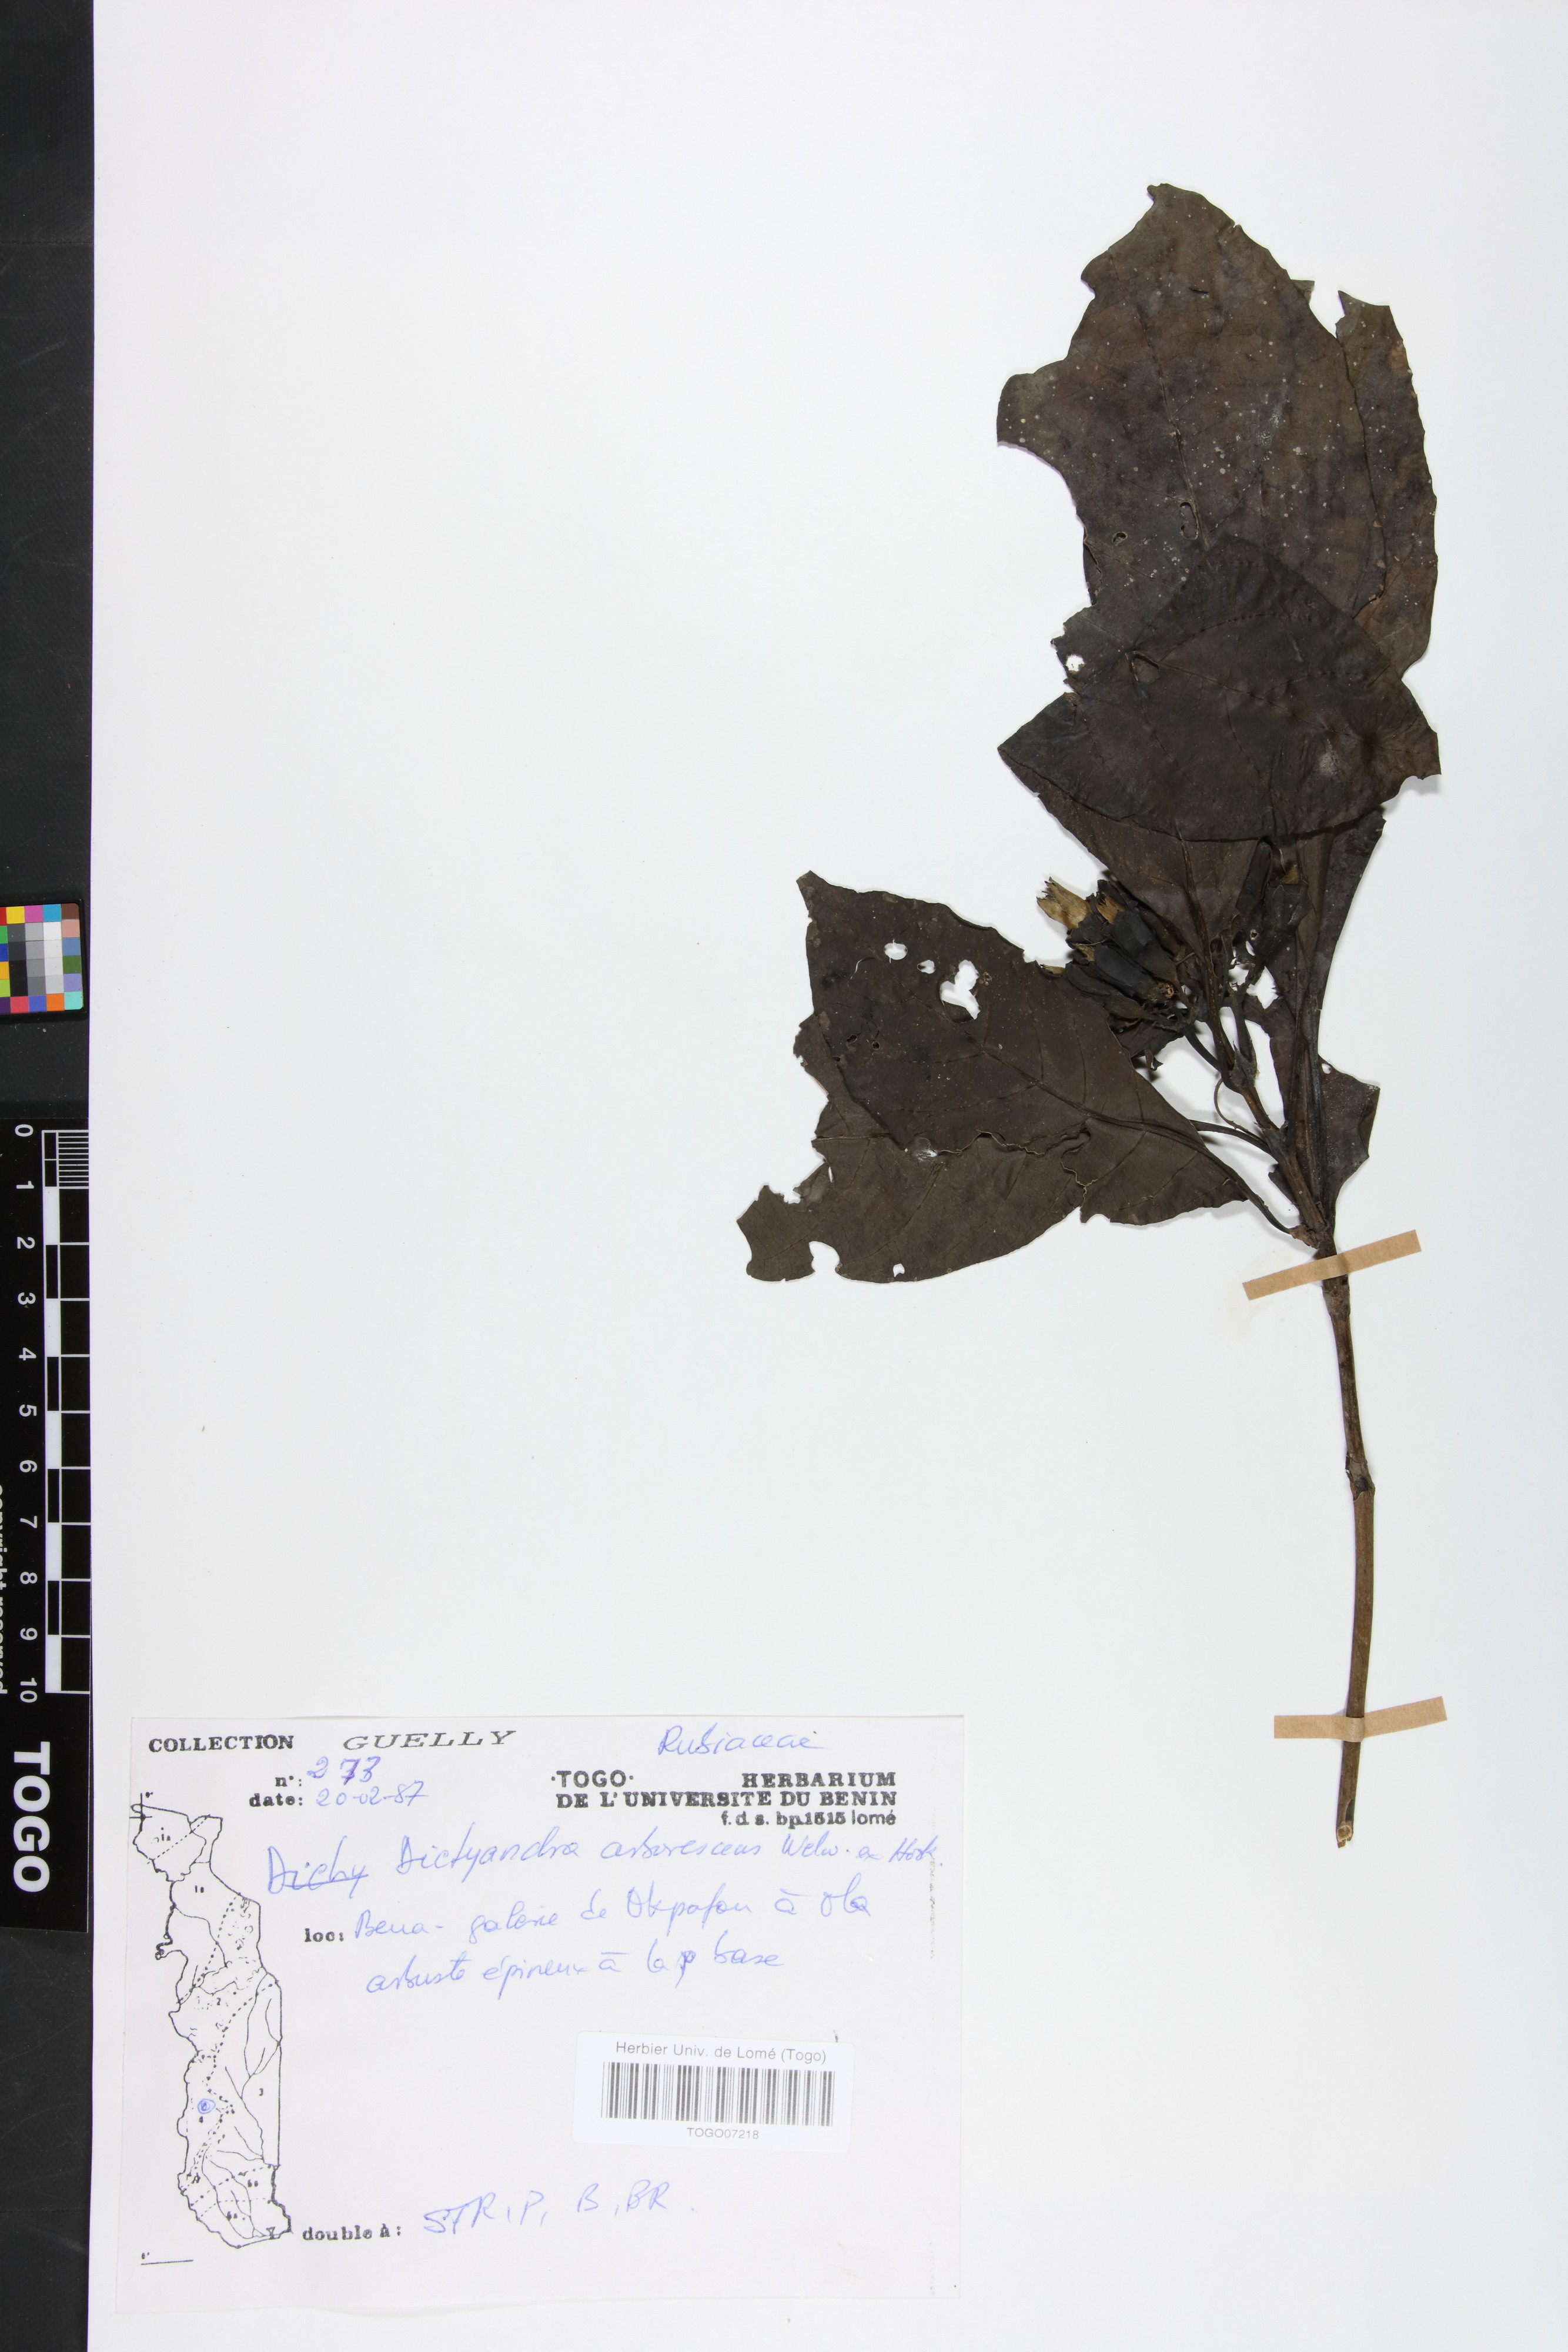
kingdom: Plantae
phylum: Tracheophyta
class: Magnoliopsida
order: Gentianales
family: Rubiaceae
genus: Leptactina
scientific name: Leptactina arborescens
